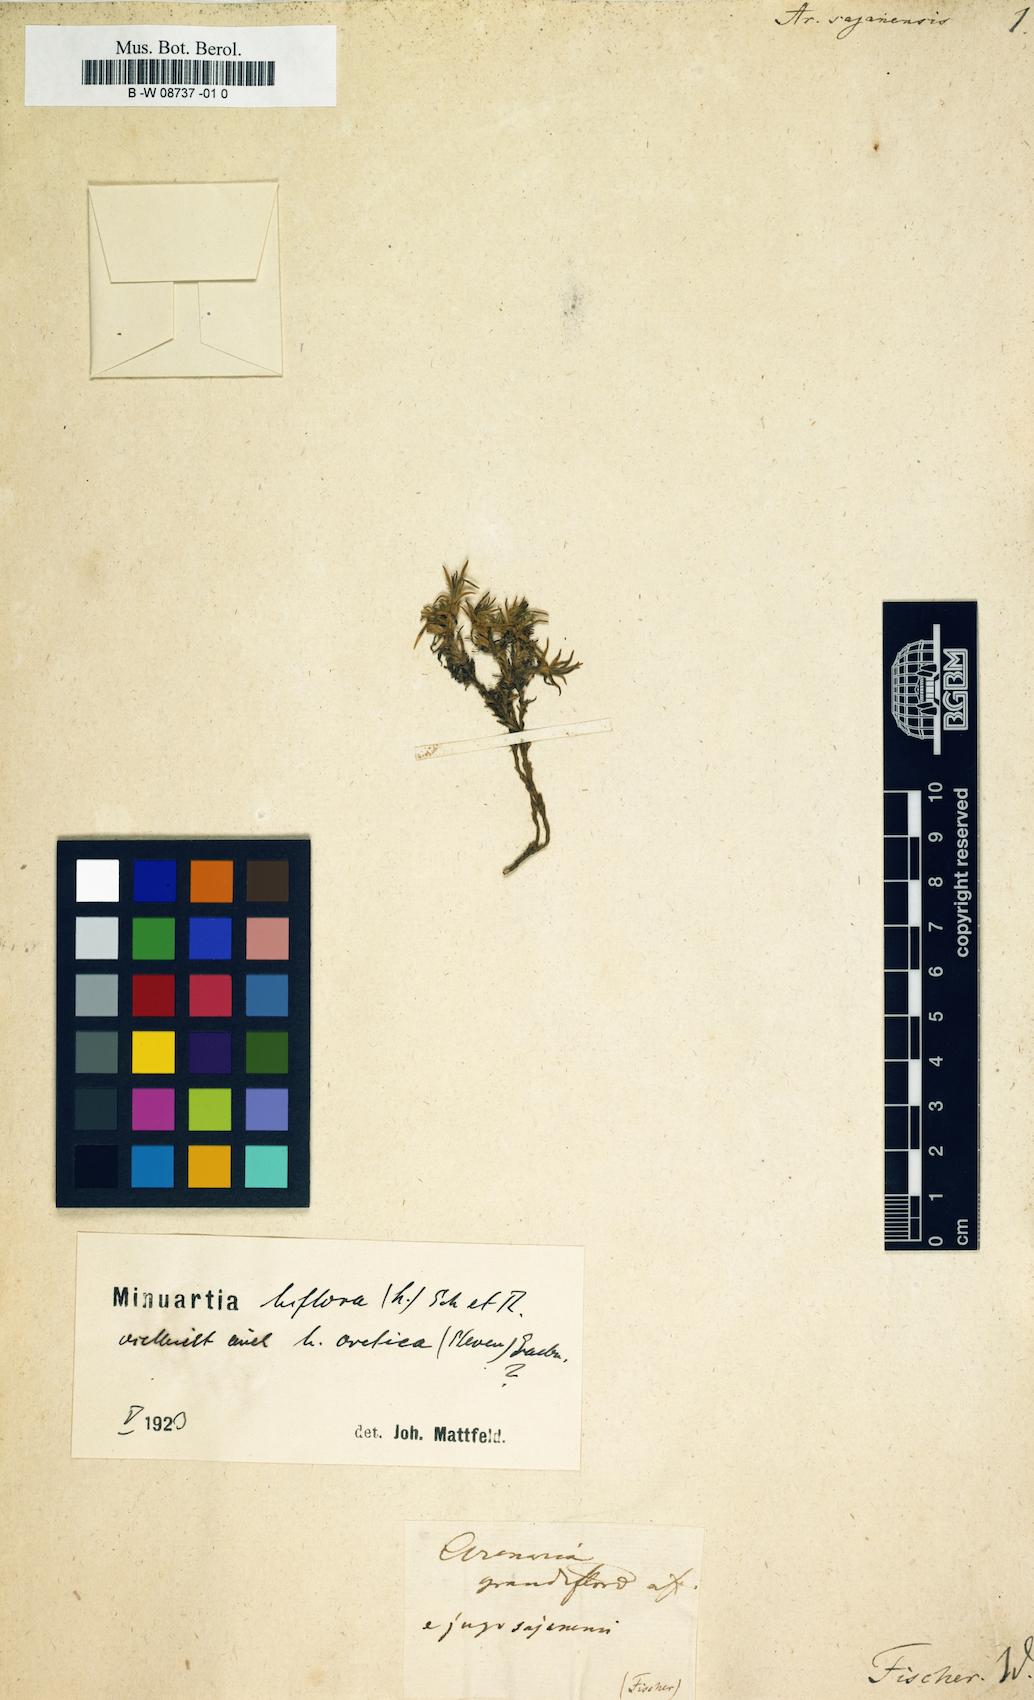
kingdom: Plantae
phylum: Tracheophyta
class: Magnoliopsida
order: Caryophyllales
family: Caryophyllaceae
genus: Cherleria
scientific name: Cherleria biflora
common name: Mountain sandwort
